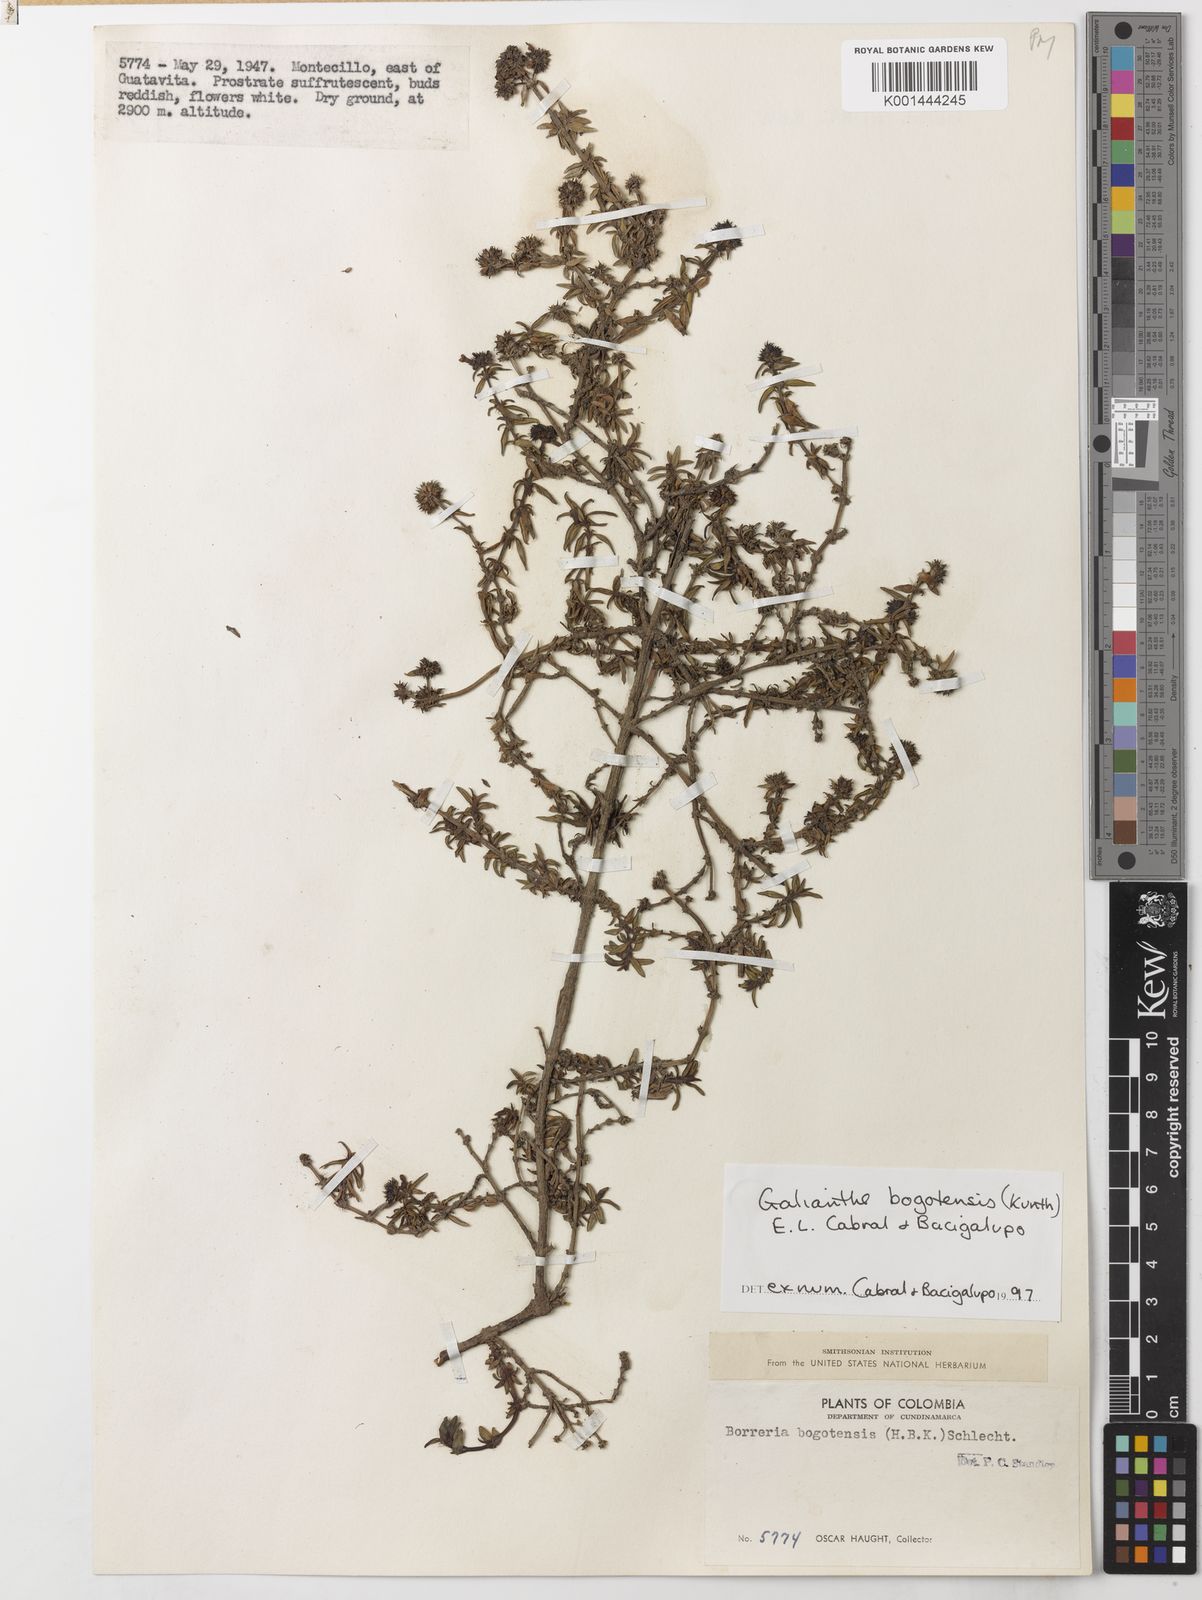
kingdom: Plantae
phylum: Tracheophyta
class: Magnoliopsida
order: Gentianales
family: Rubiaceae
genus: Galianthe
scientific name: Galianthe bogotensis
